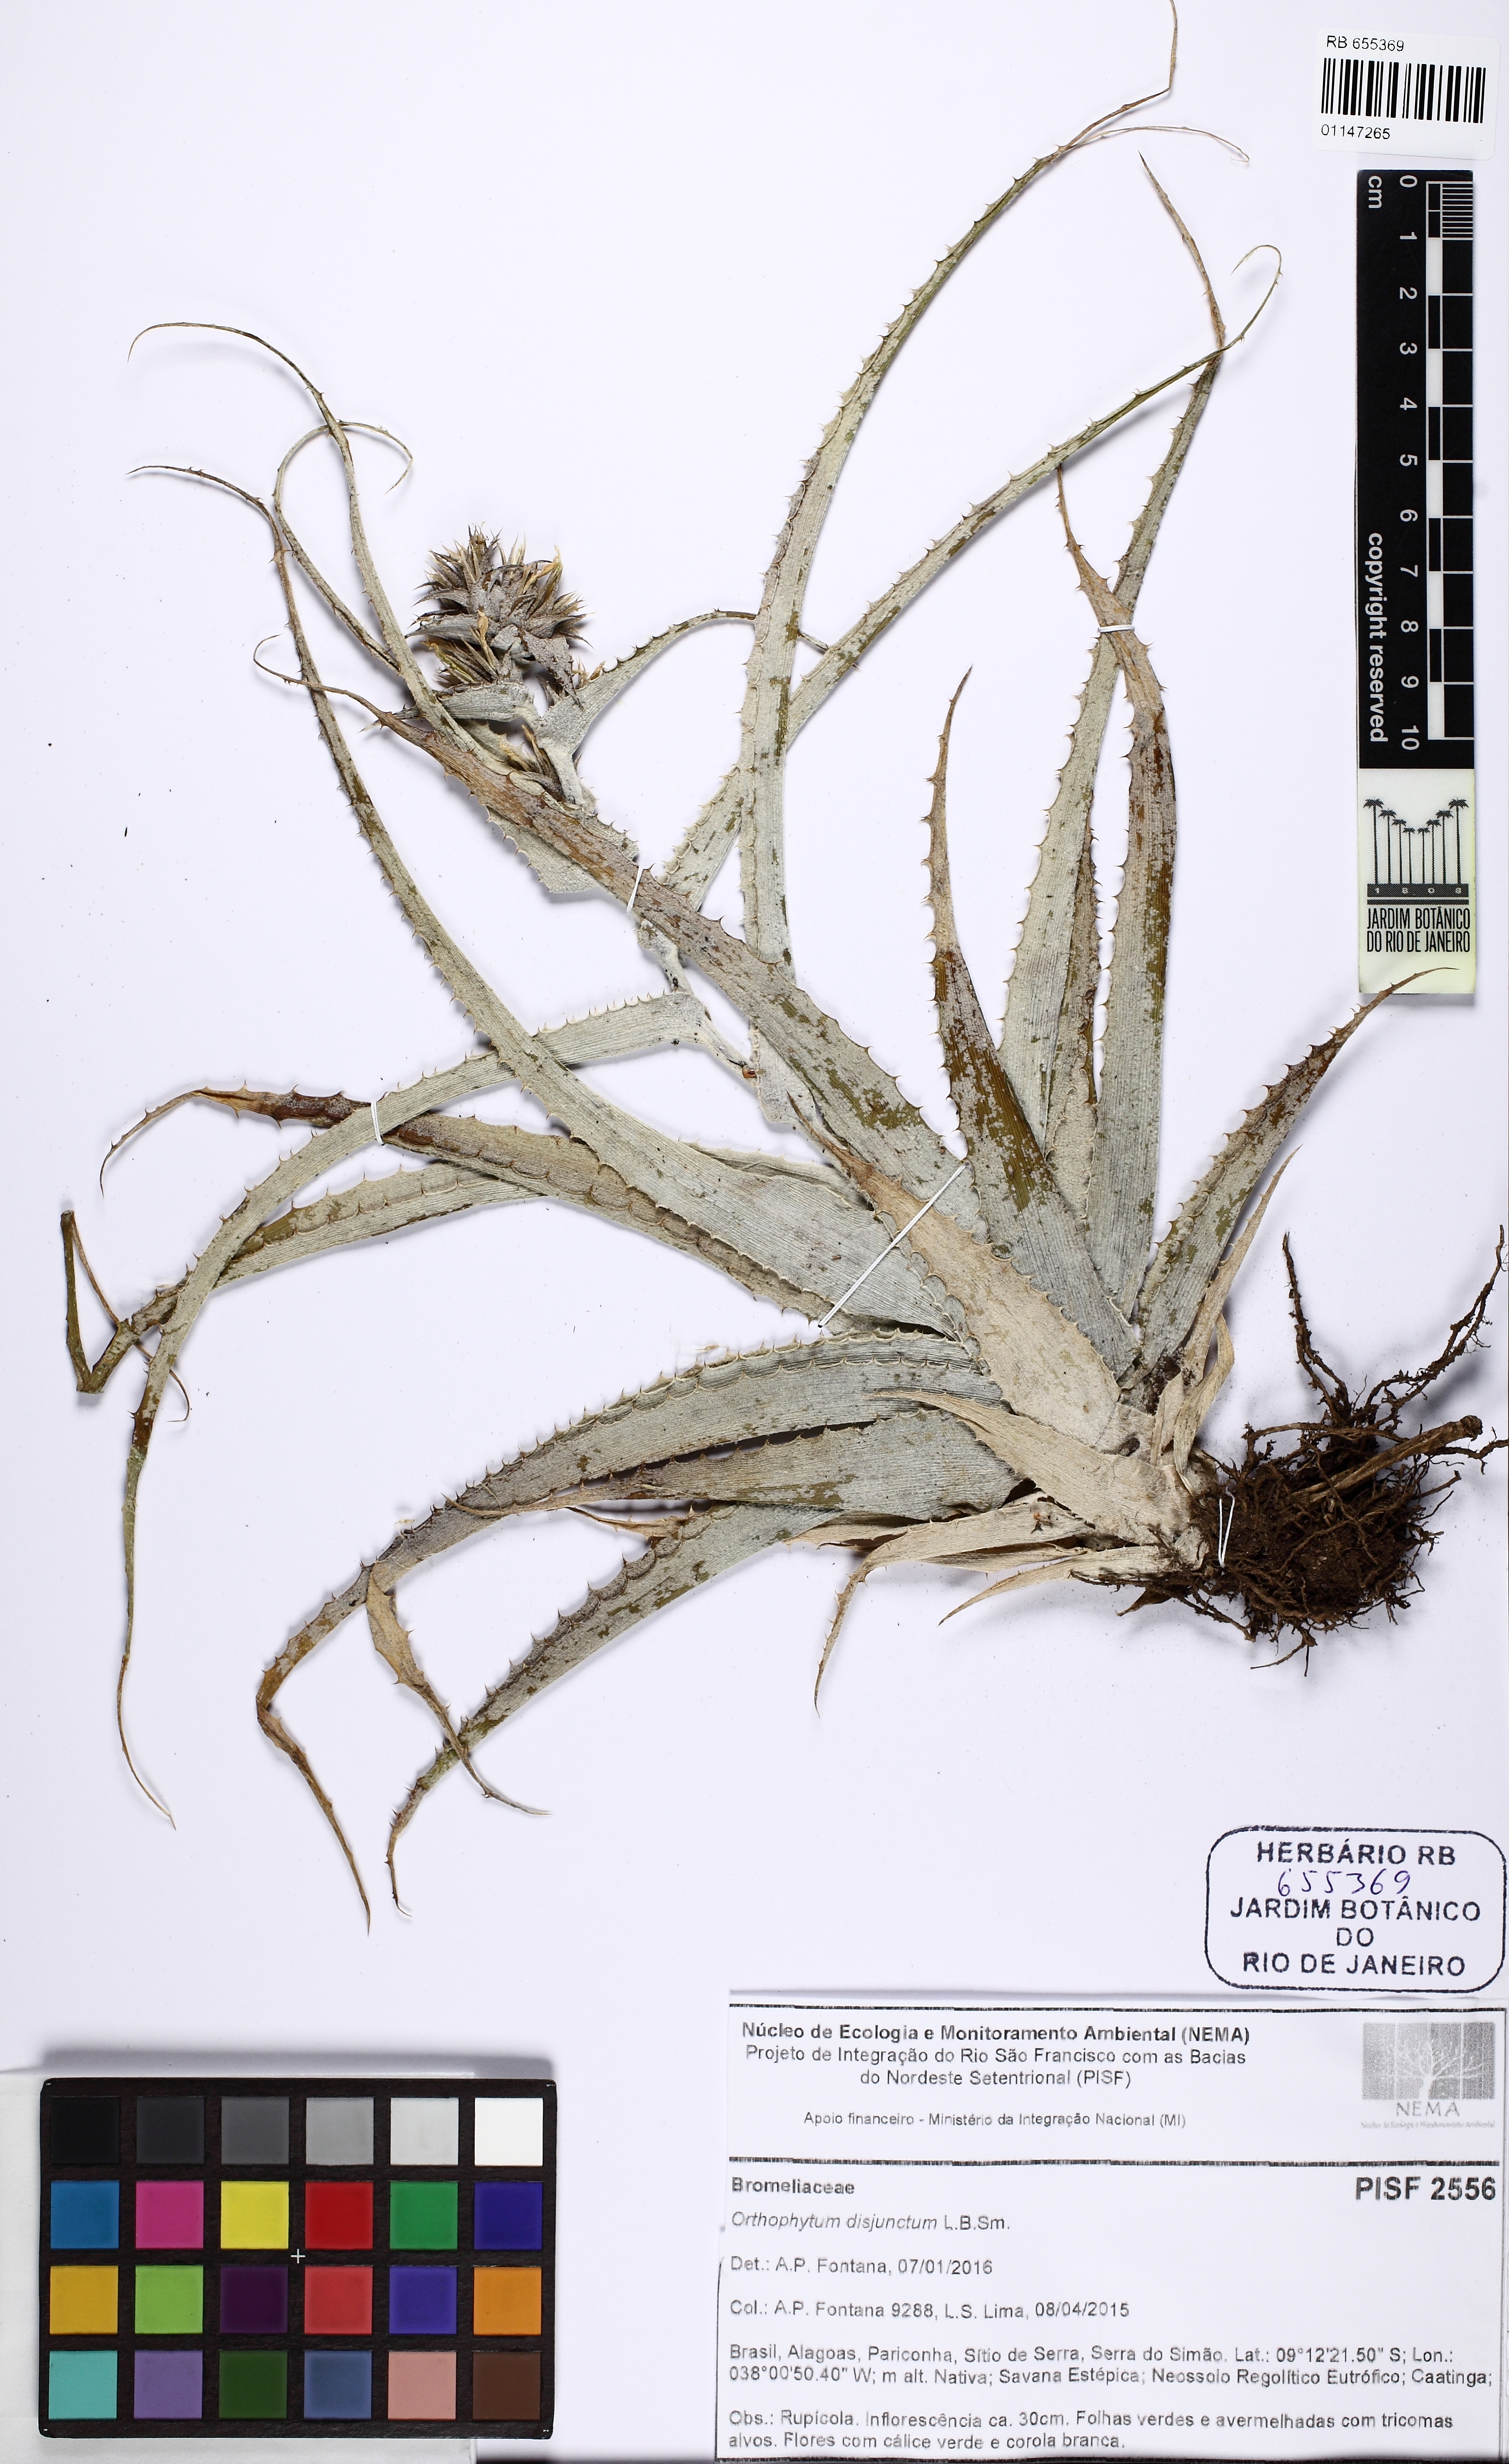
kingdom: Plantae
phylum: Tracheophyta
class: Liliopsida
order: Poales
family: Bromeliaceae
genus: Orthophytum
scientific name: Orthophytum disjunctum
